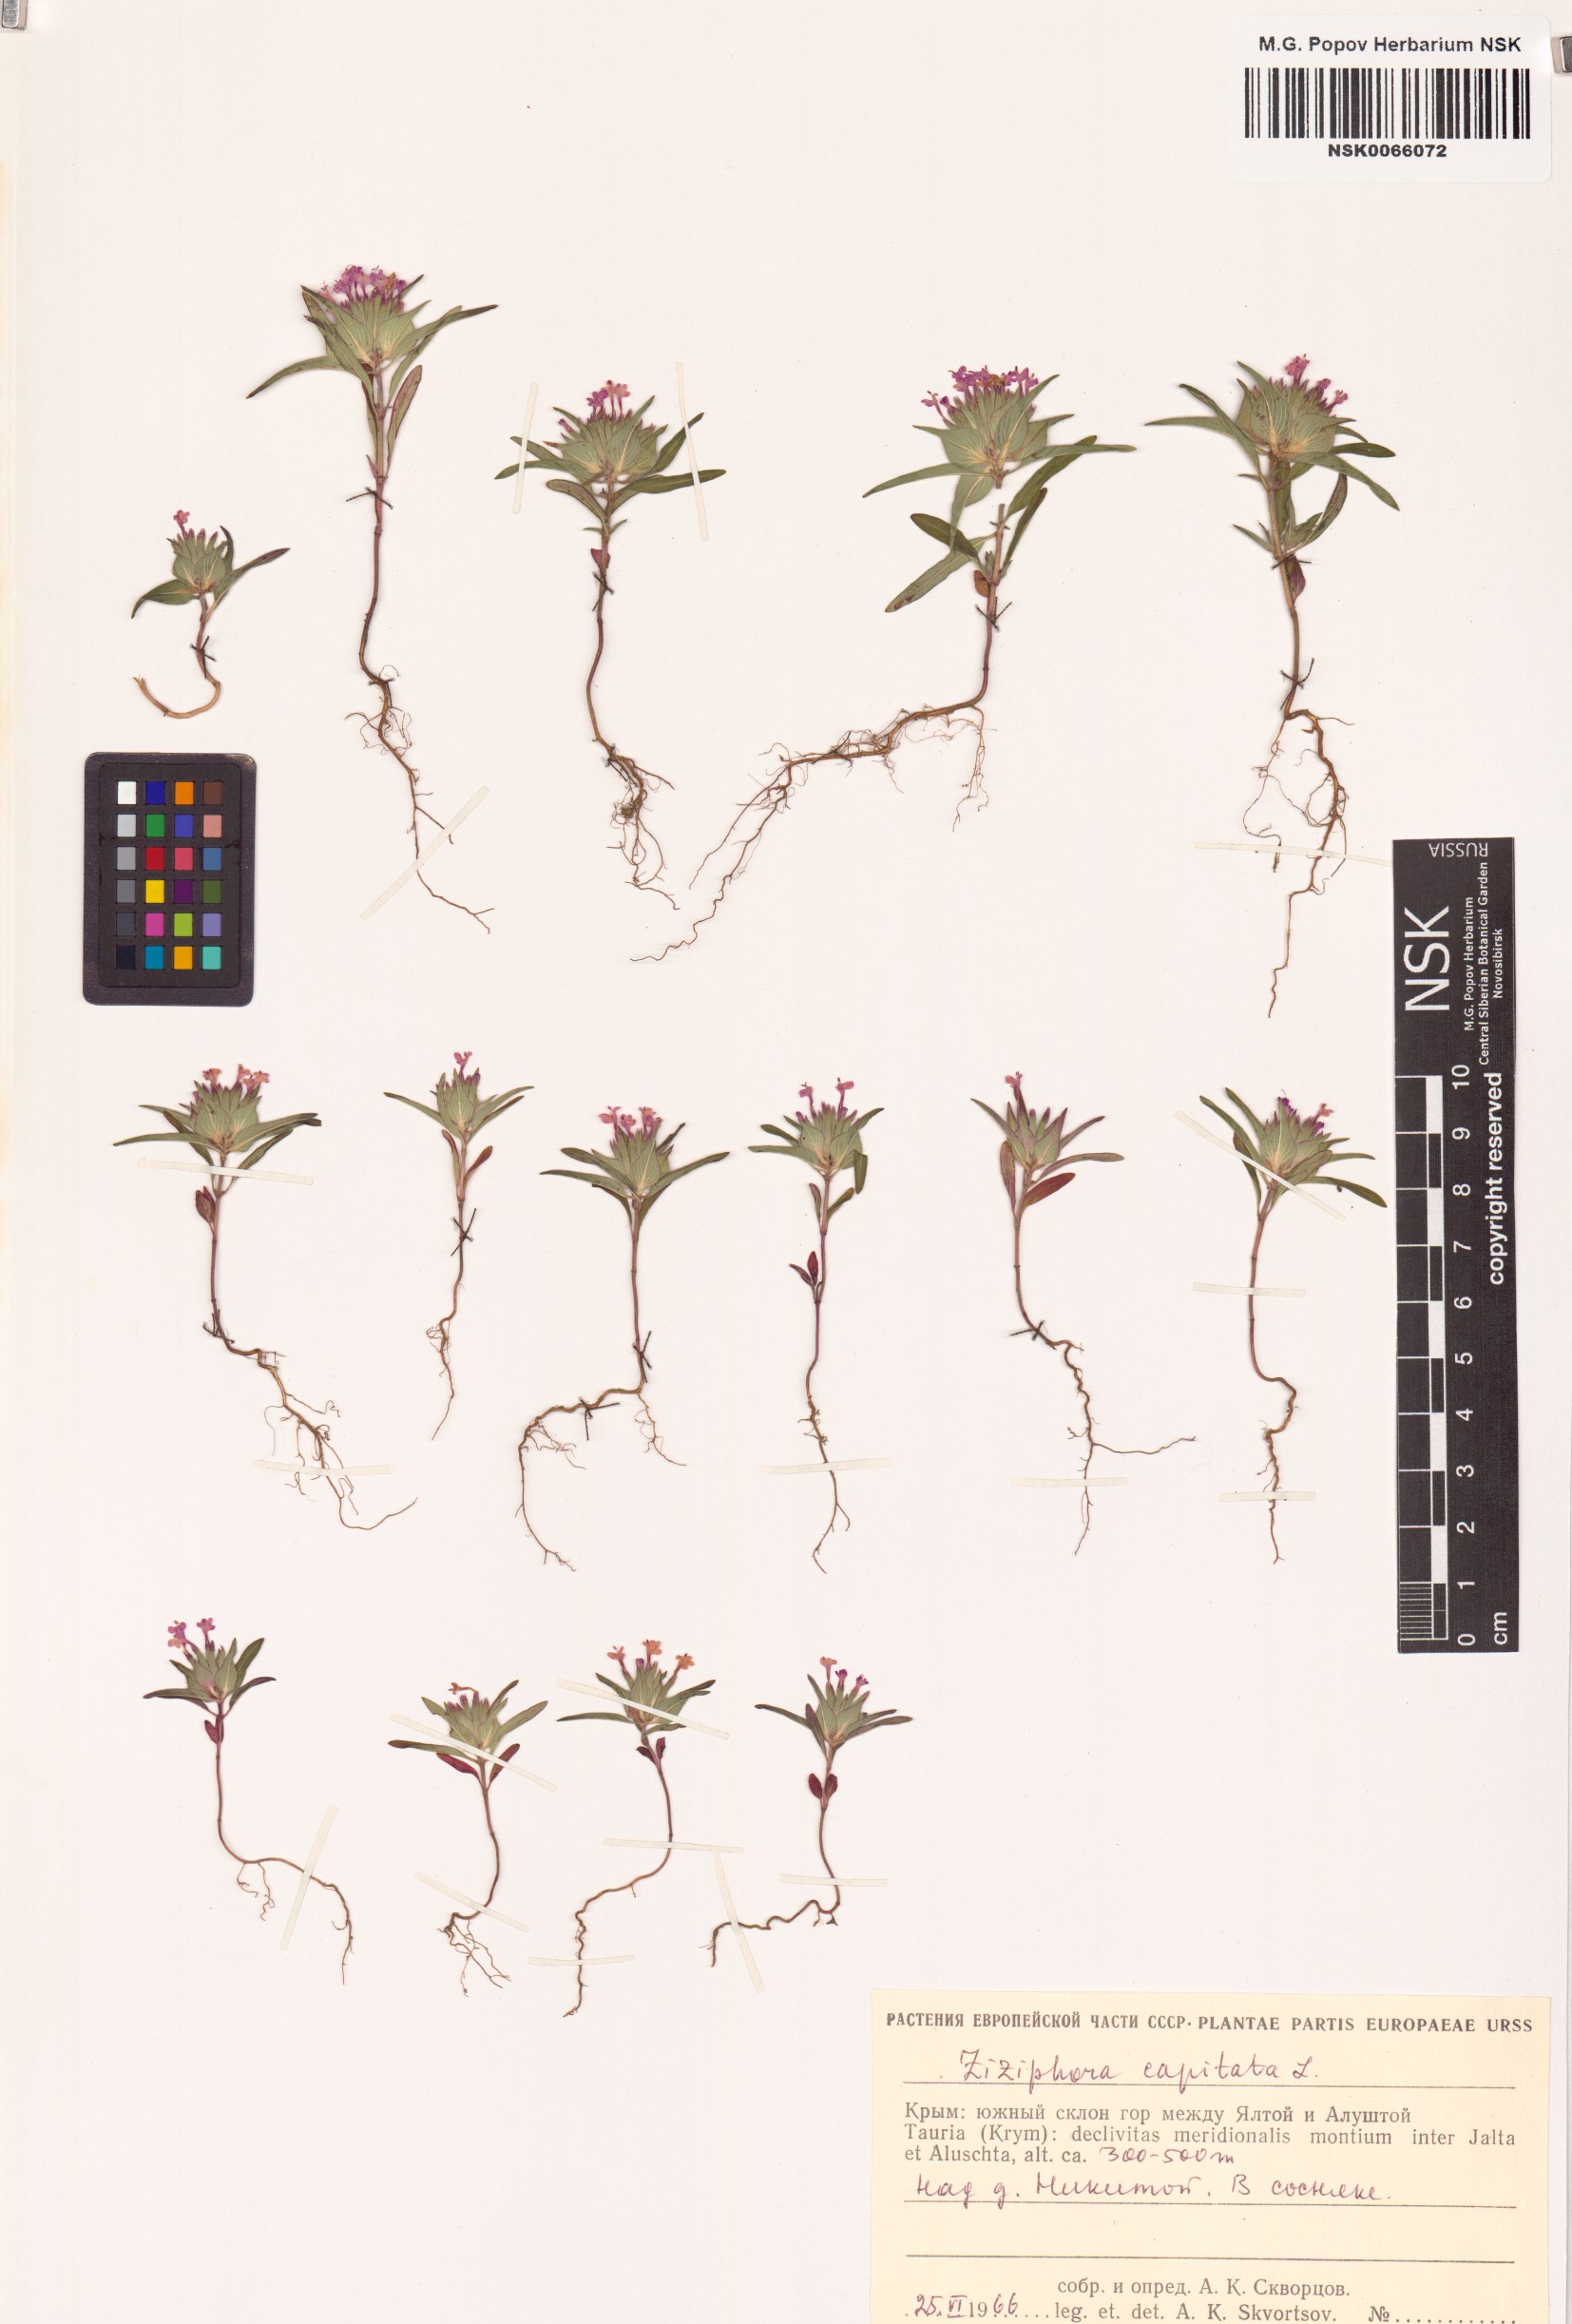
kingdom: Plantae
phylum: Tracheophyta
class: Magnoliopsida
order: Lamiales
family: Lamiaceae
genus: Ziziphora
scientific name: Ziziphora capitata
